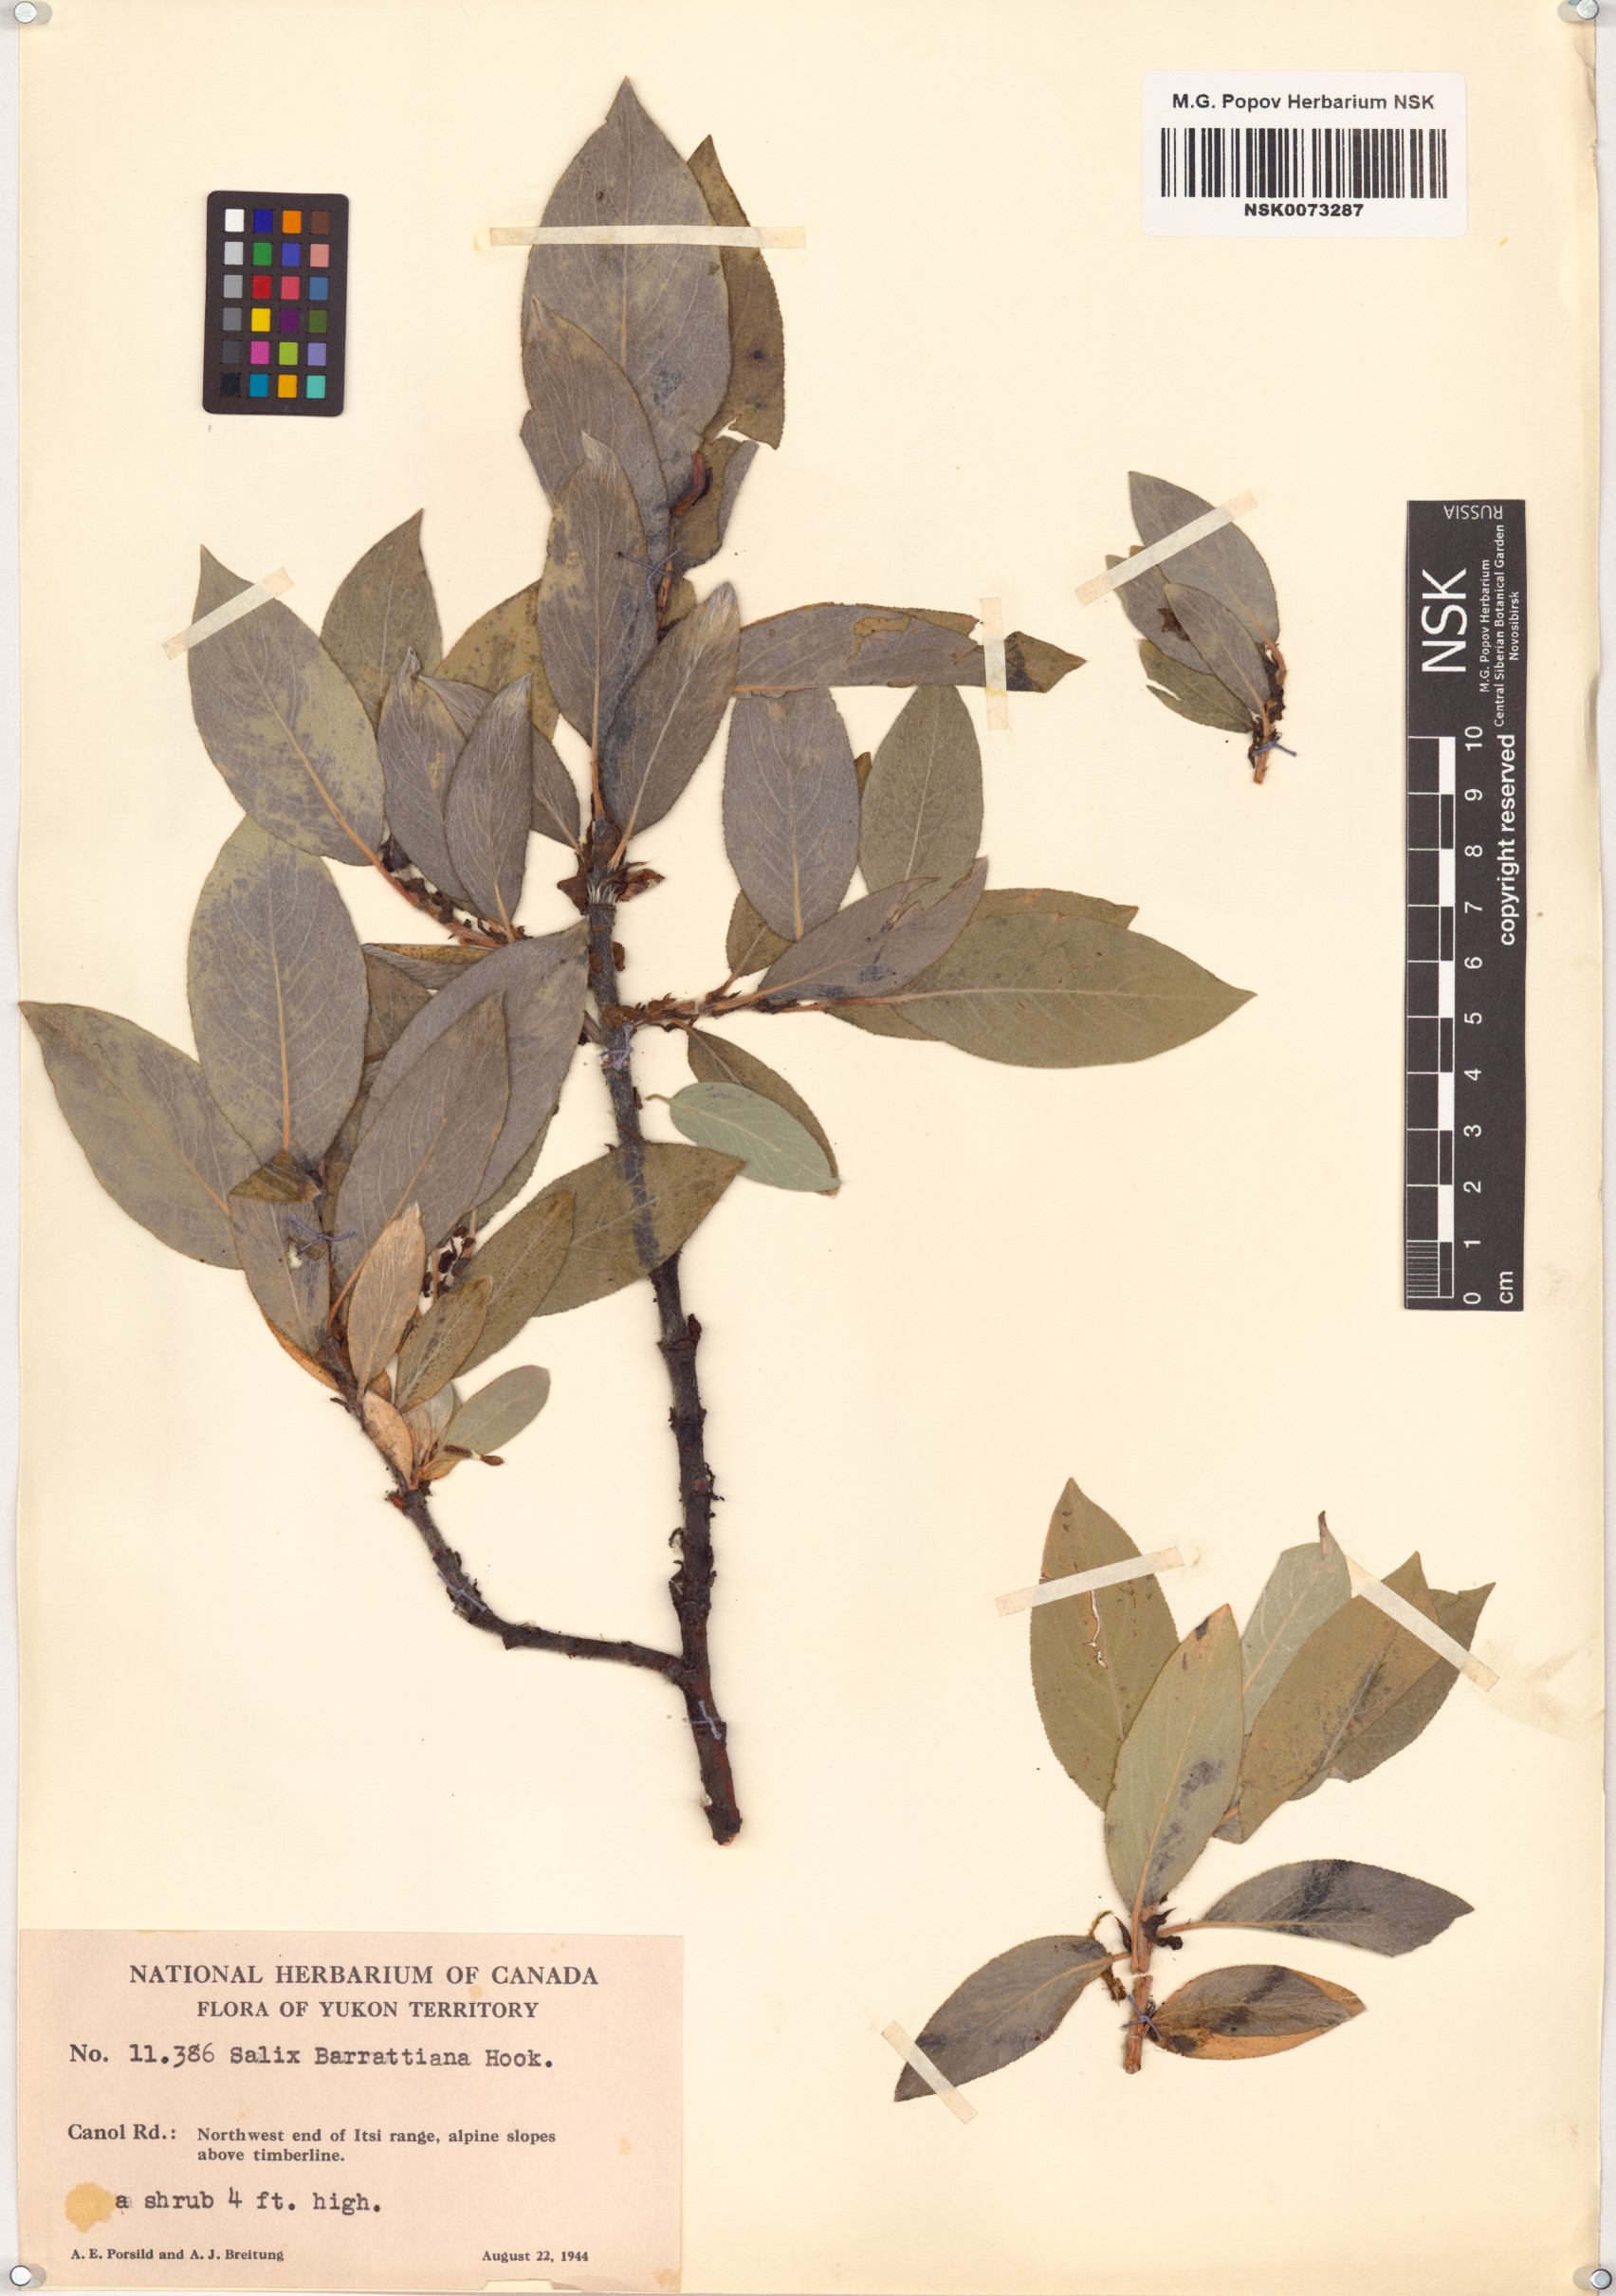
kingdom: Plantae
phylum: Tracheophyta
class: Magnoliopsida
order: Malpighiales
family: Salicaceae
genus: Salix
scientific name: Salix barrattiana
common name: Barratt's willow
